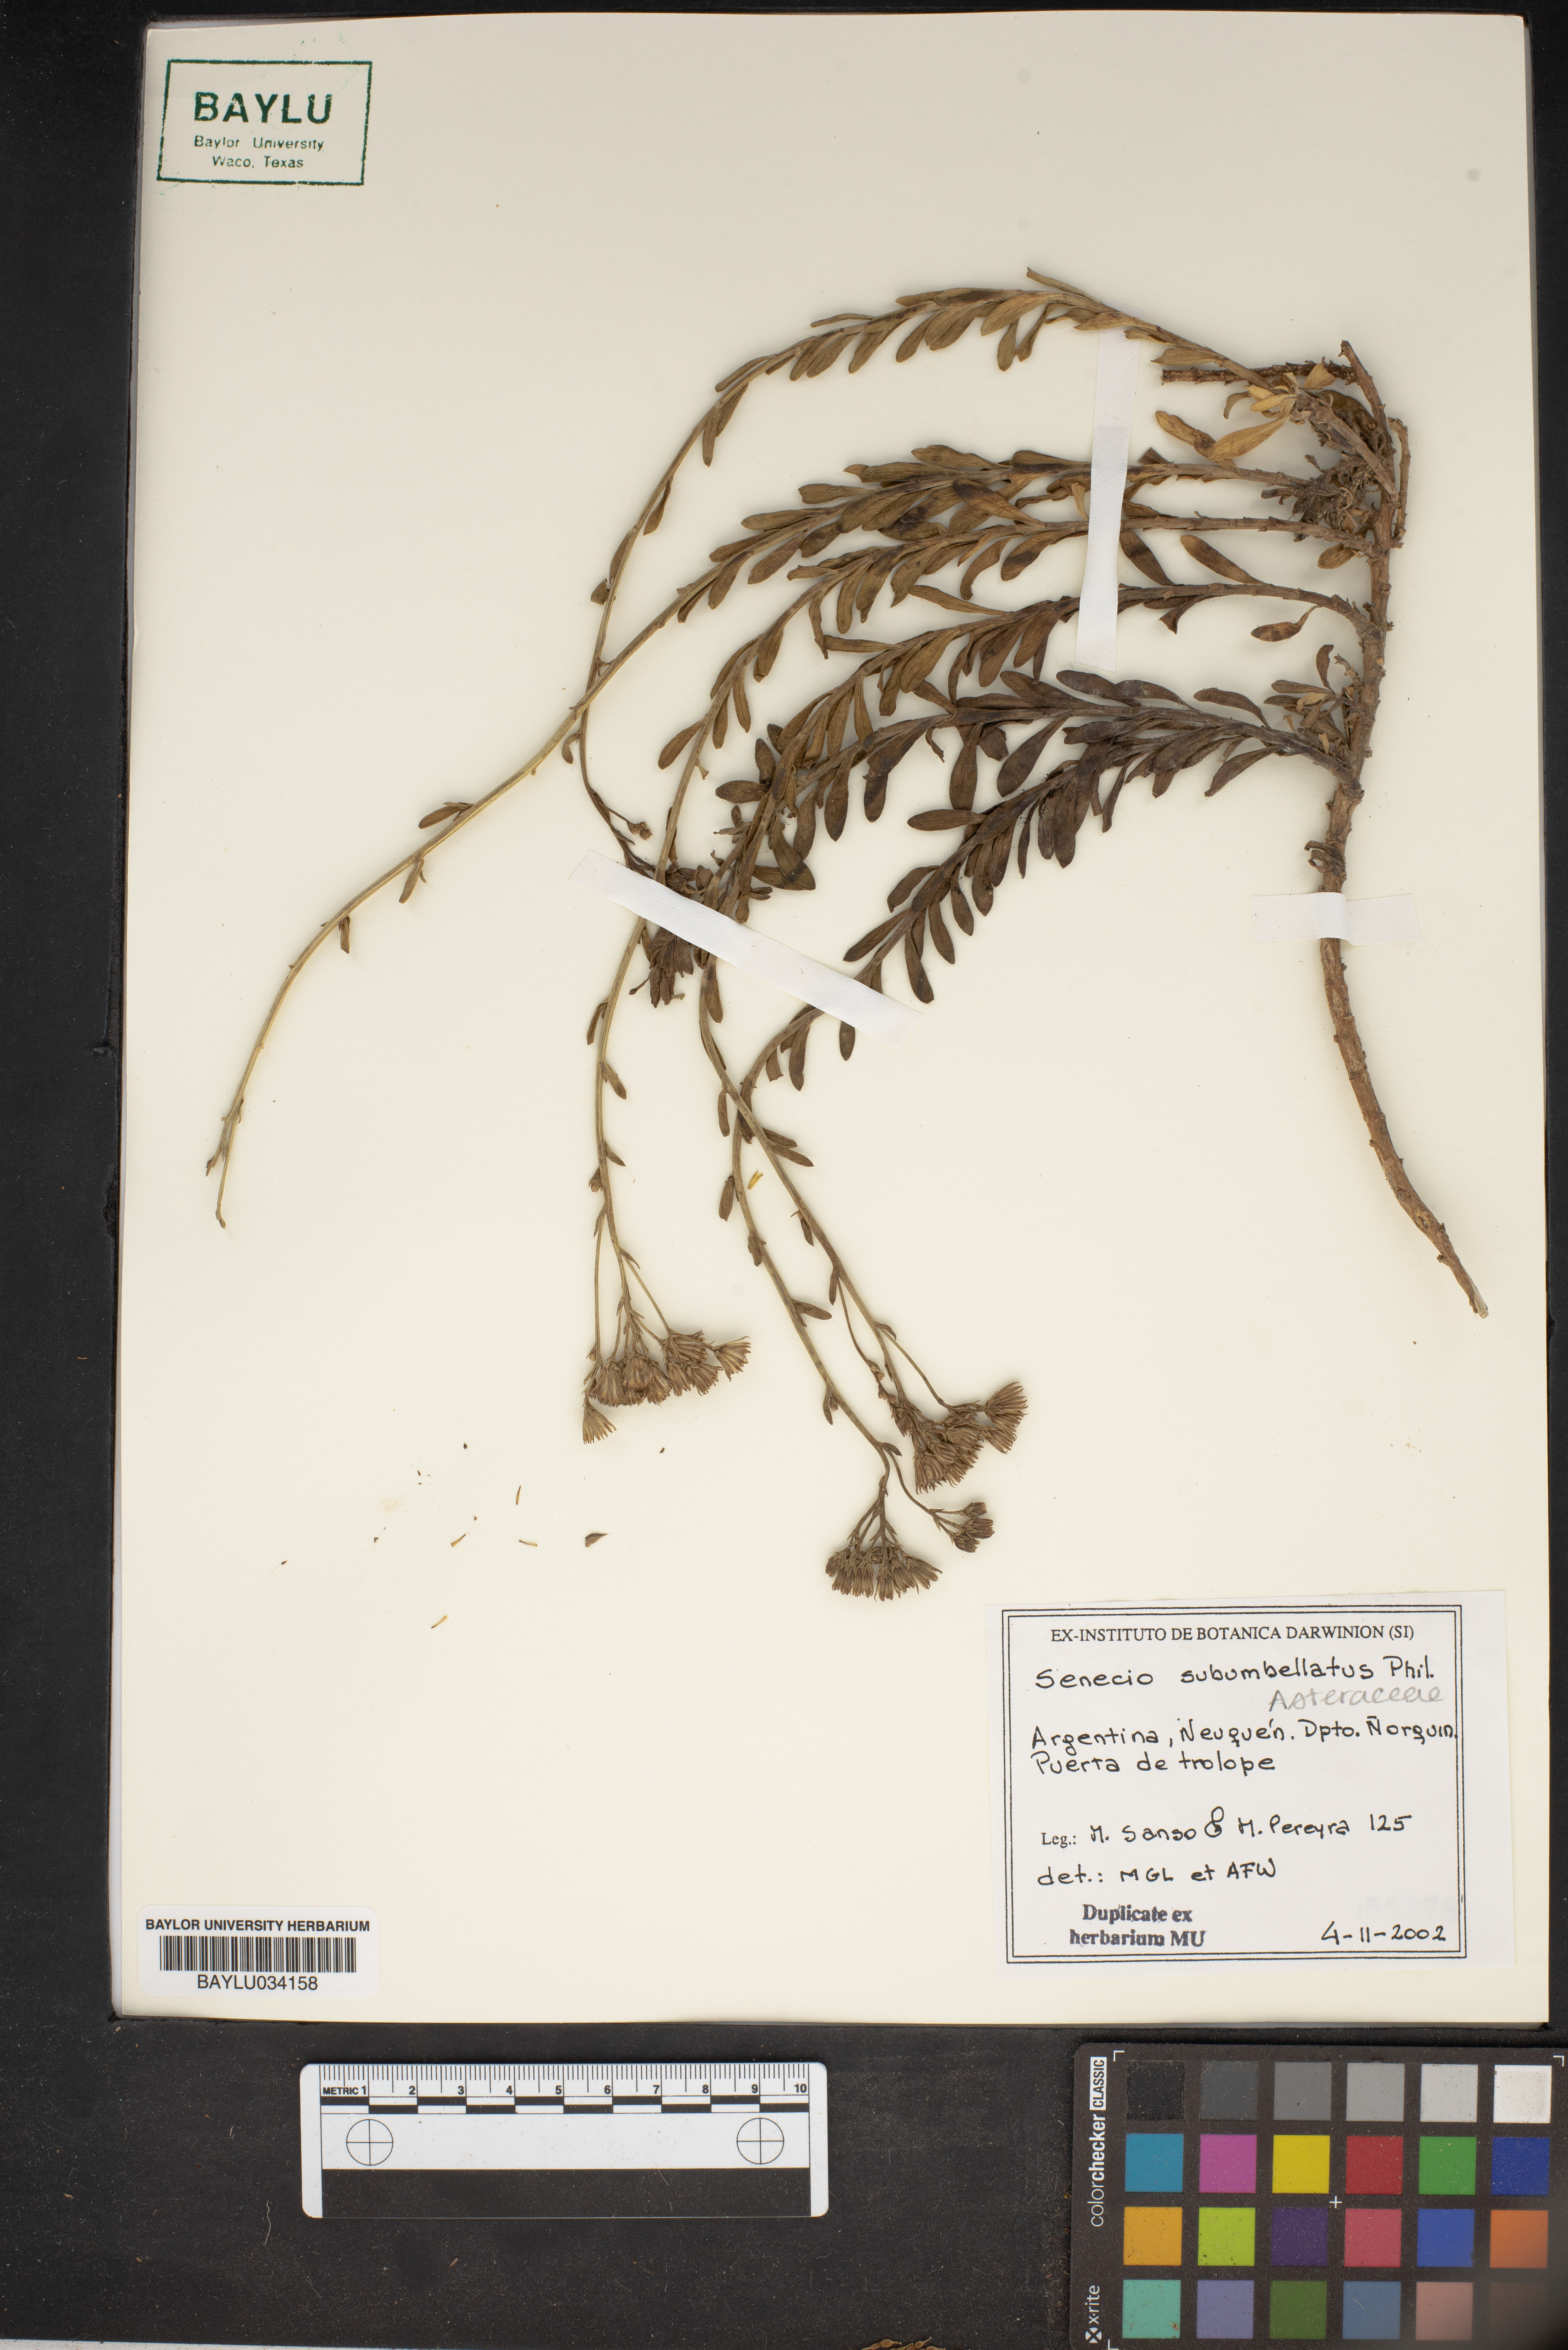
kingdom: Plantae
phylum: Tracheophyta
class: Magnoliopsida
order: Asterales
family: Asteraceae
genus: Senecio
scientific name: Senecio subumbellatus
